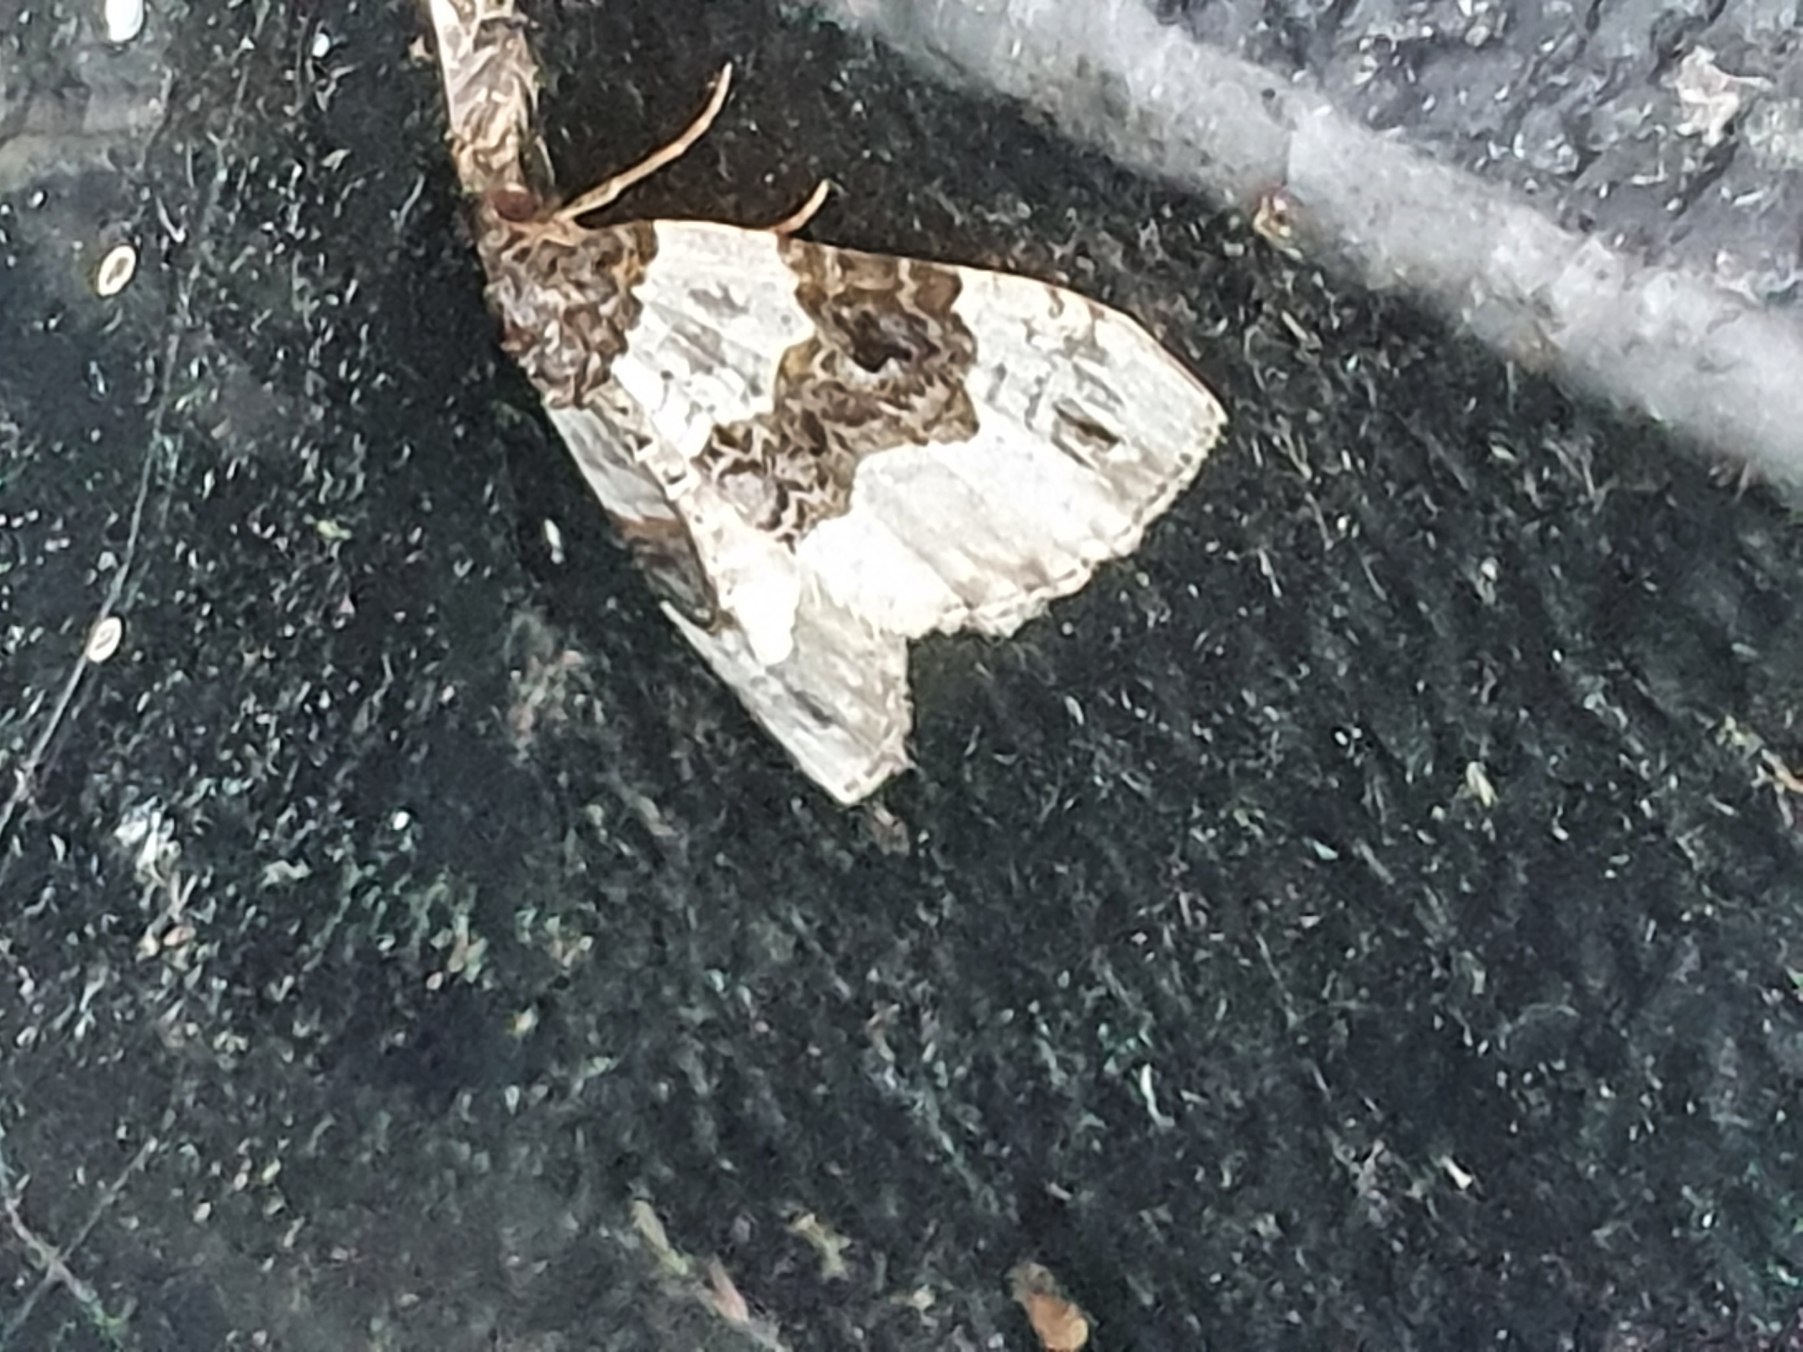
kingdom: Animalia
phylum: Arthropoda
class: Insecta
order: Lepidoptera
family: Geometridae
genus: Cosmorhoe
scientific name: Cosmorhoe ocellata
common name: Snerre-bladmåler
